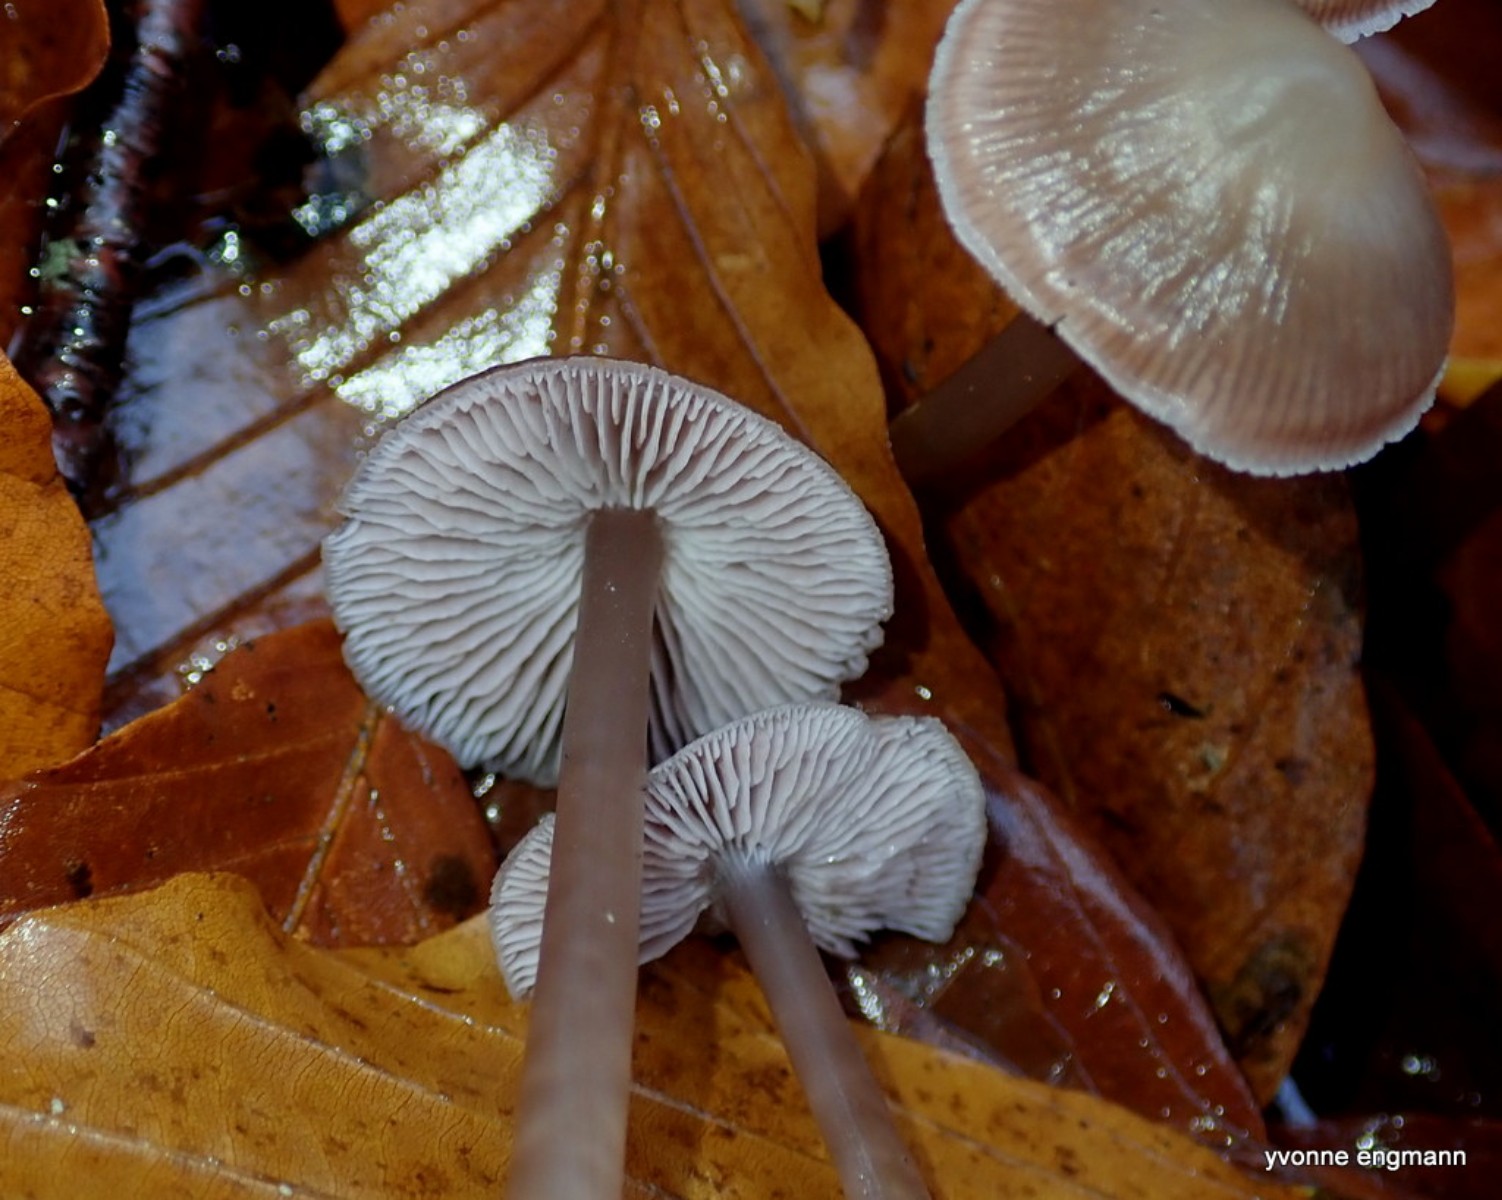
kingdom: Fungi
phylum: Basidiomycota
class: Agaricomycetes
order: Agaricales
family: Mycenaceae
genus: Prunulus
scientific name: Prunulus diosmus
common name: tobaks-huesvamp
